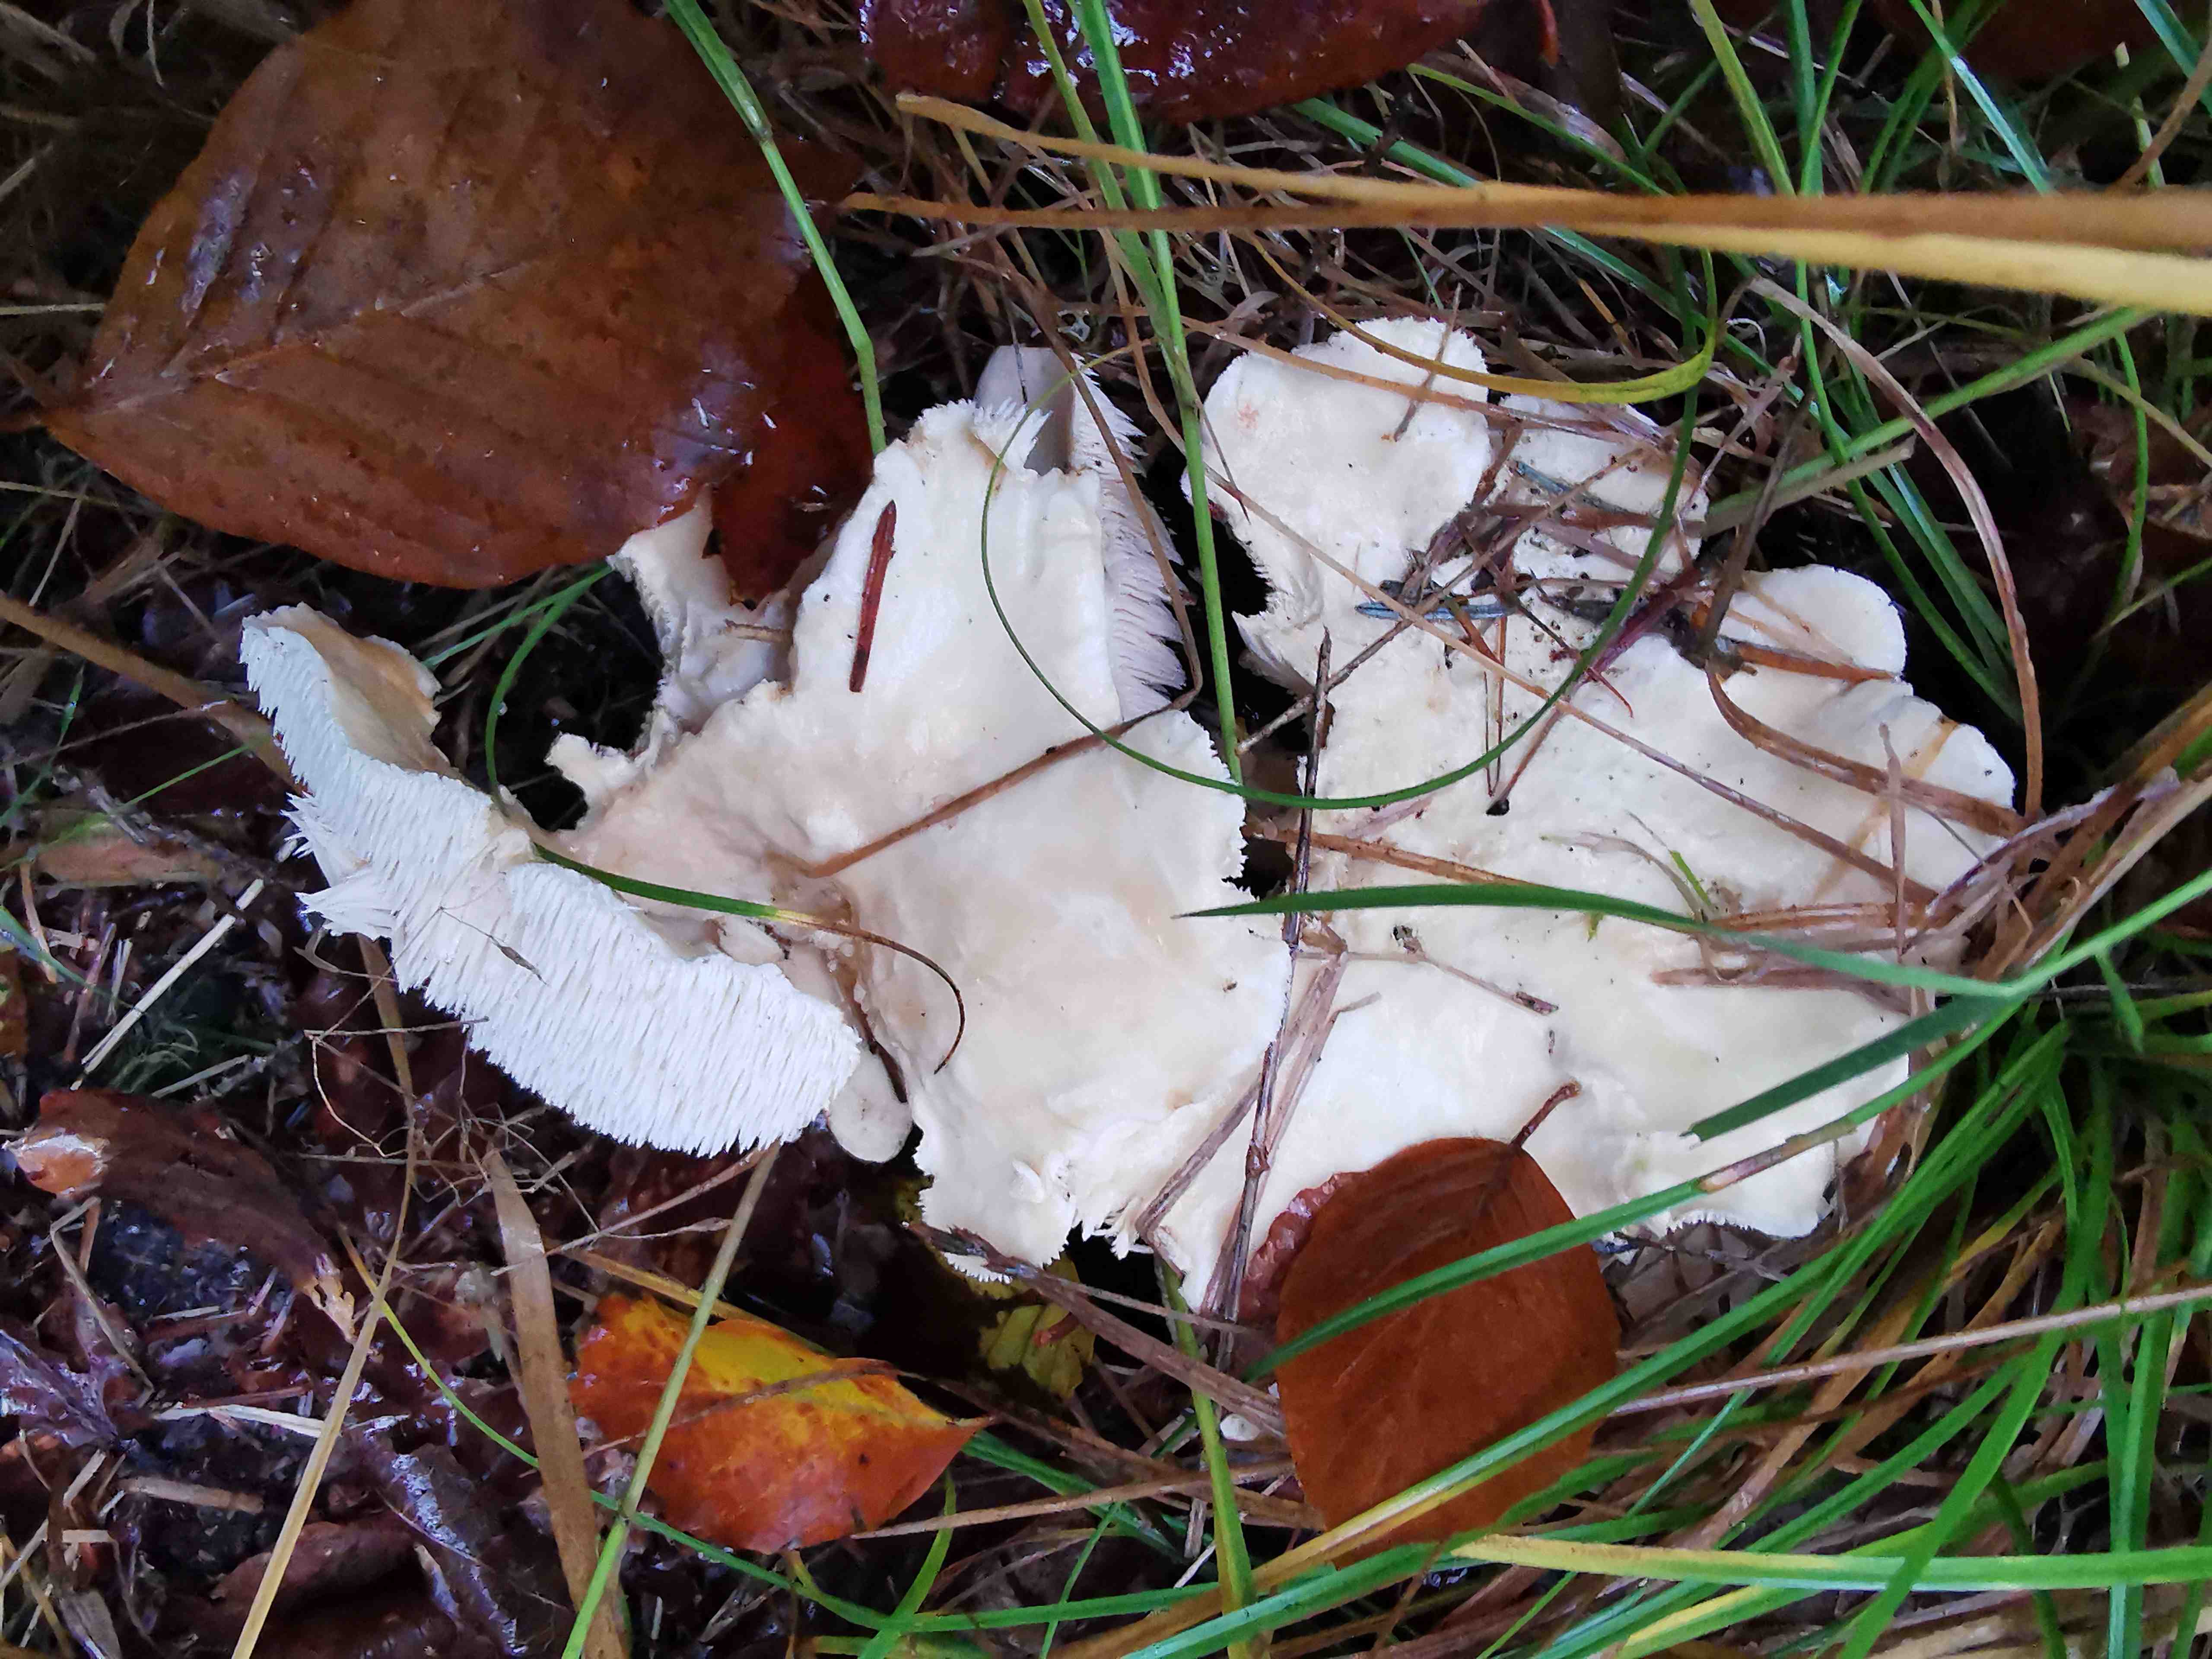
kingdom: Fungi
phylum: Basidiomycota
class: Agaricomycetes
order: Cantharellales
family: Hydnaceae
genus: Hydnum
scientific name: Hydnum repandum
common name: almindelig pigsvamp
